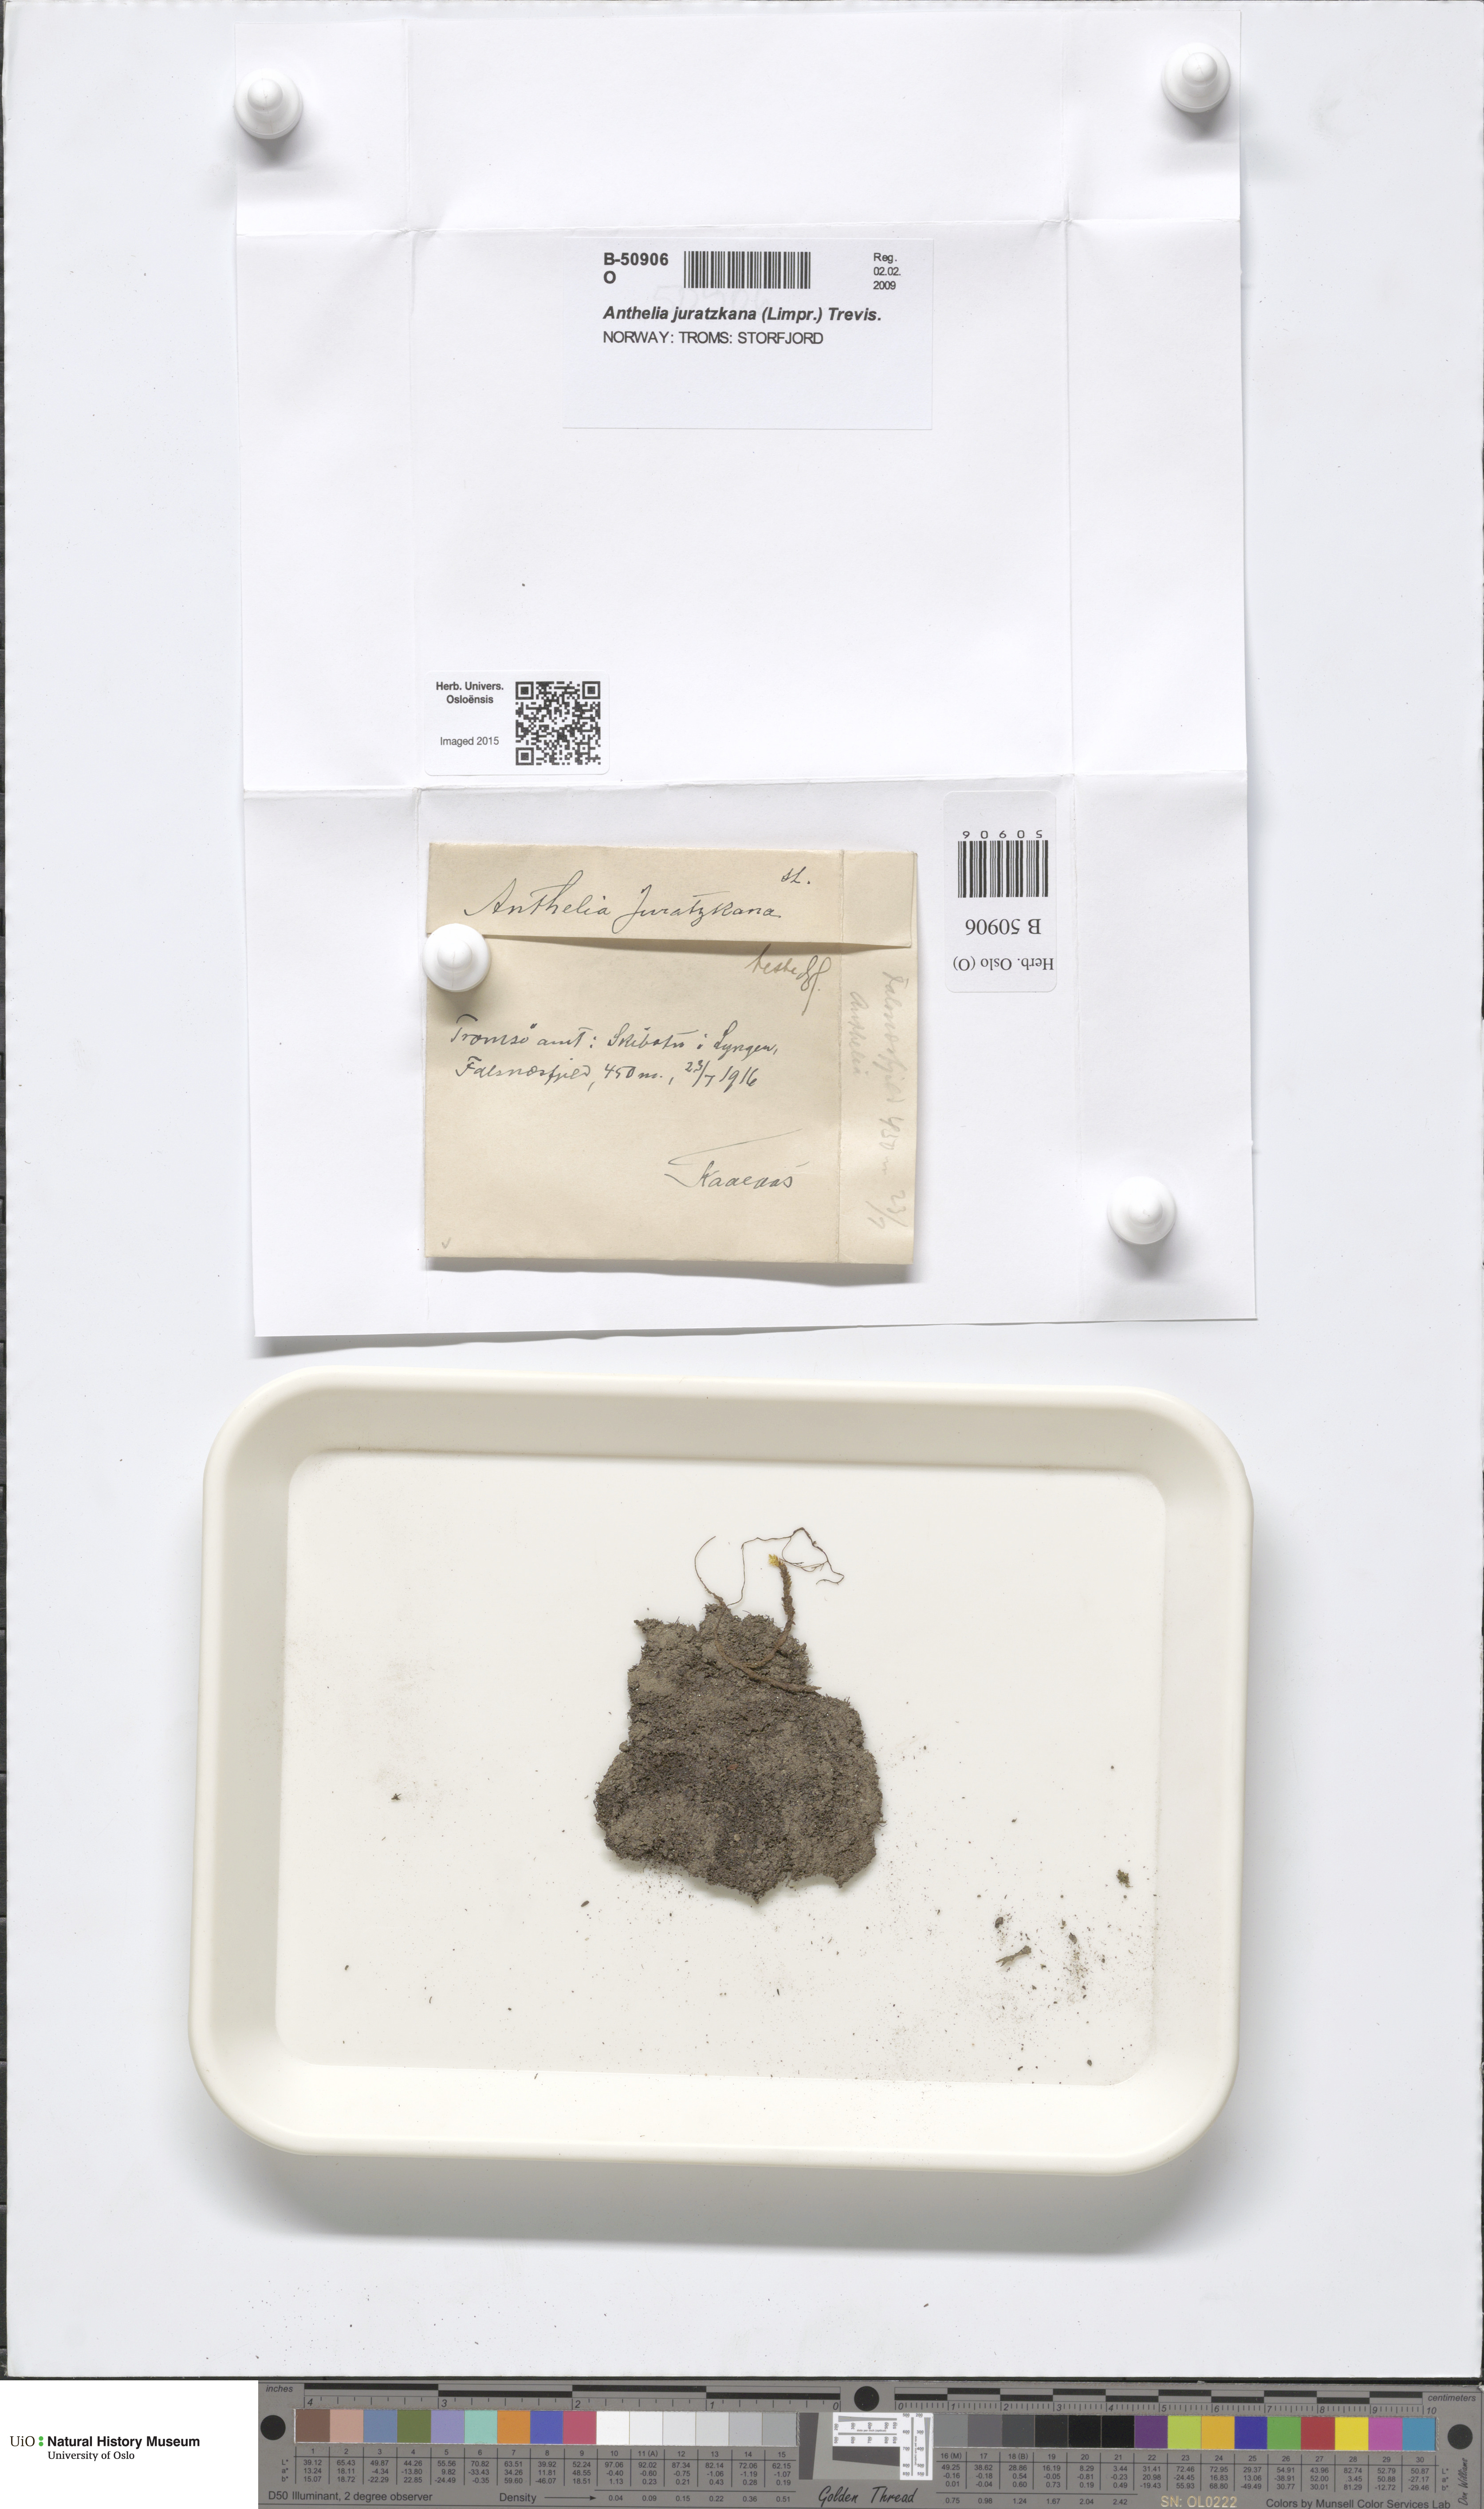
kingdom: Plantae
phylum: Marchantiophyta
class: Jungermanniopsida
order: Jungermanniales
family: Antheliaceae
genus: Anthelia
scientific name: Anthelia juratzkana
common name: Juratzka s silverwort
